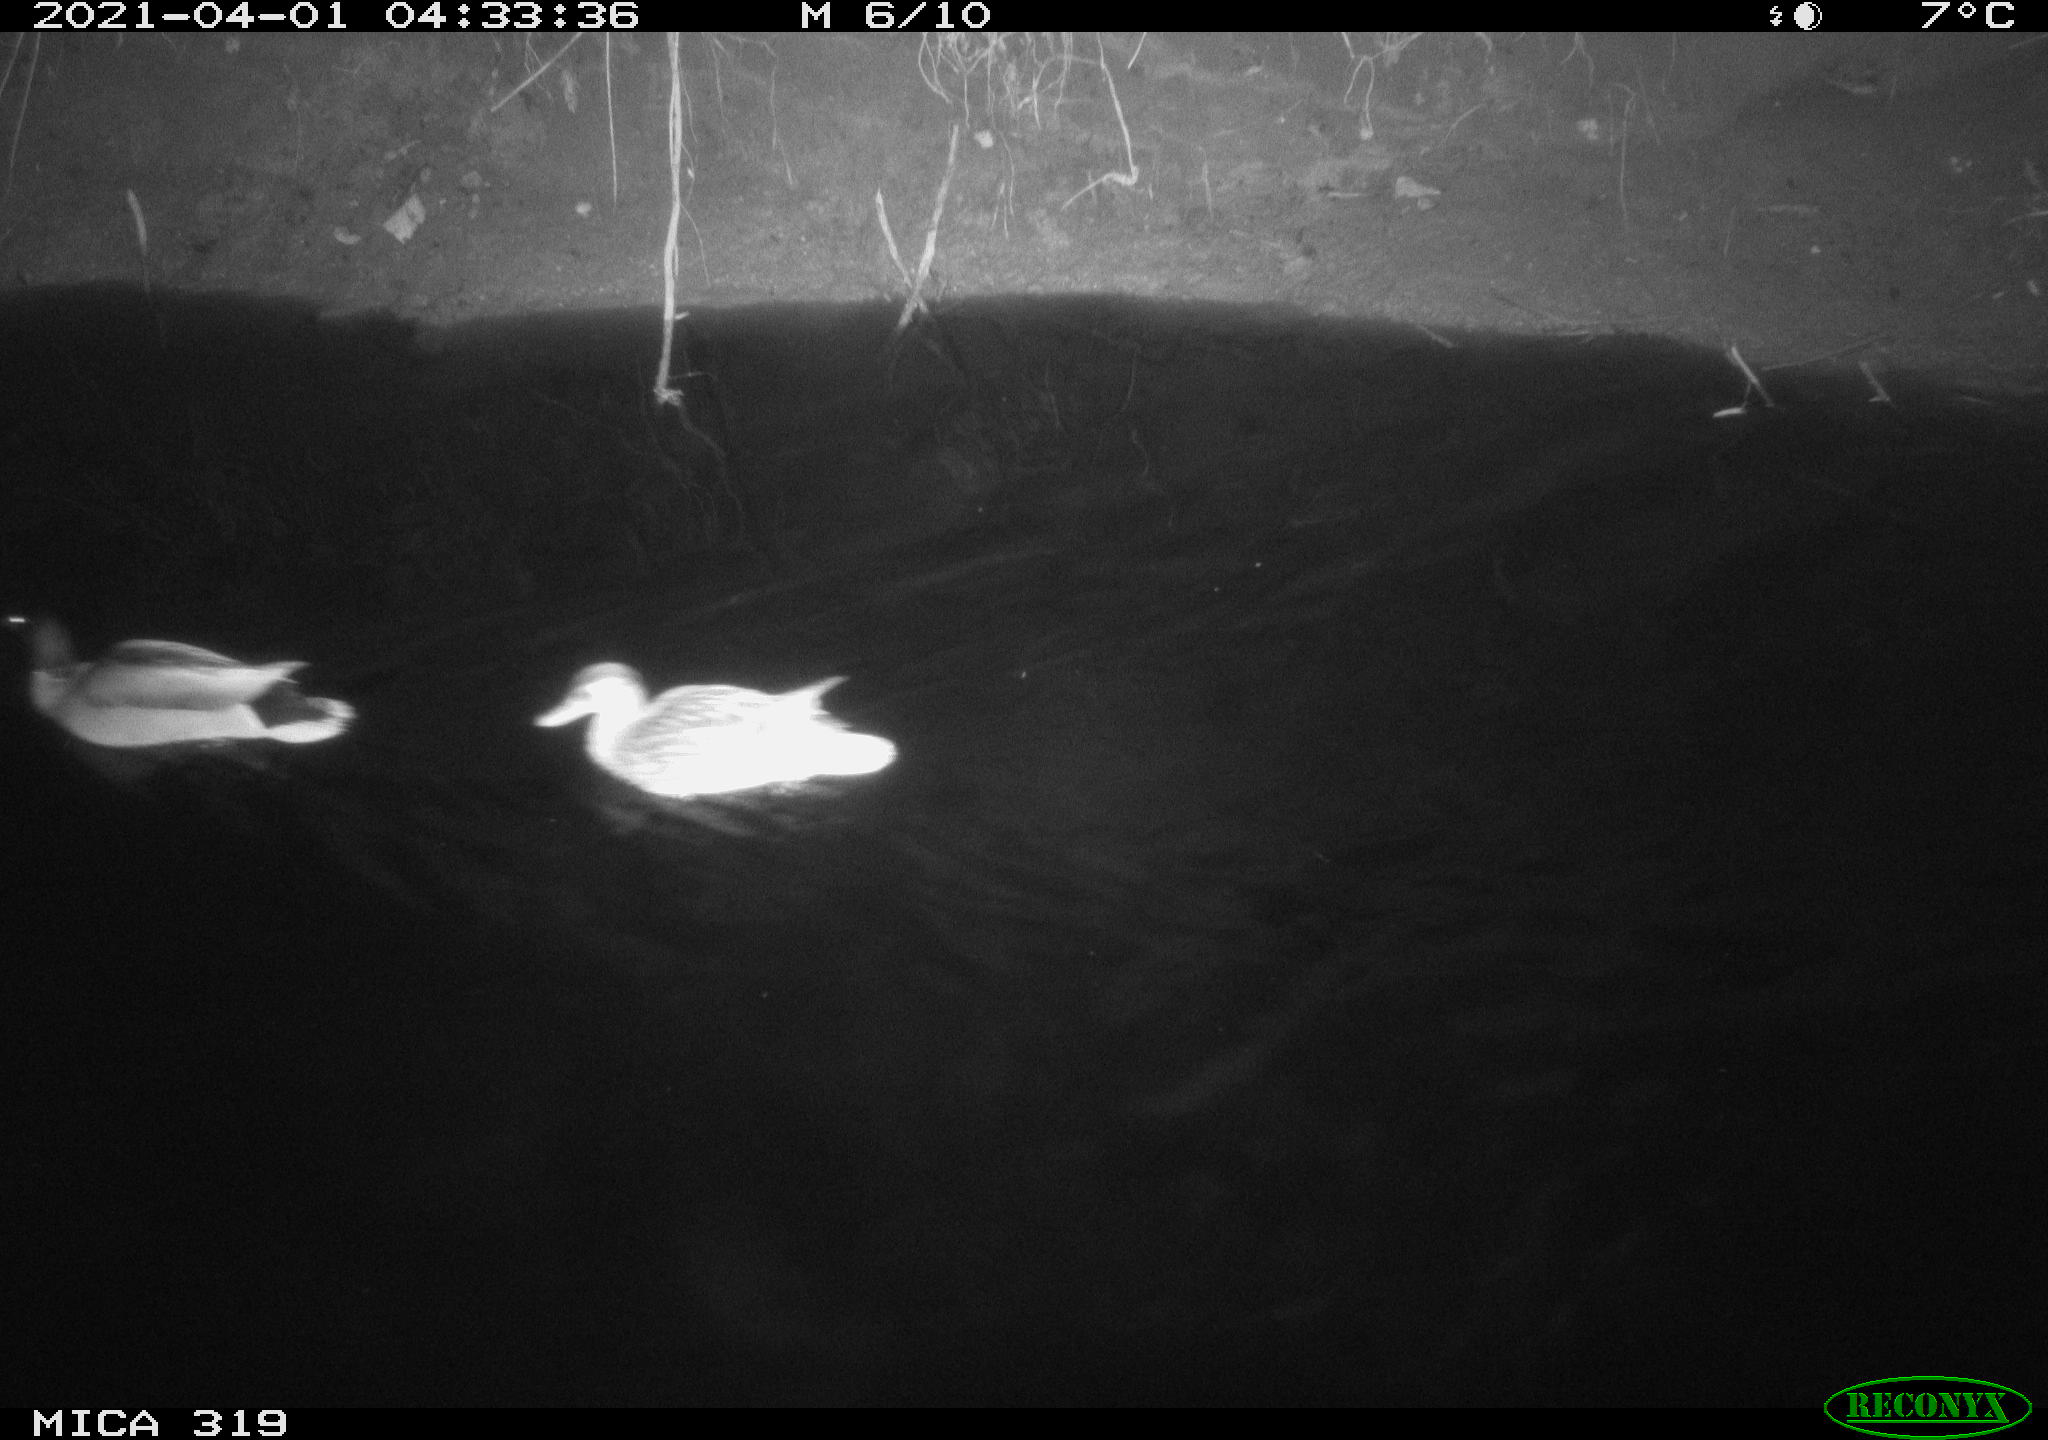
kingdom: Animalia
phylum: Chordata
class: Aves
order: Anseriformes
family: Anatidae
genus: Anas
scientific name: Anas platyrhynchos
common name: Mallard
